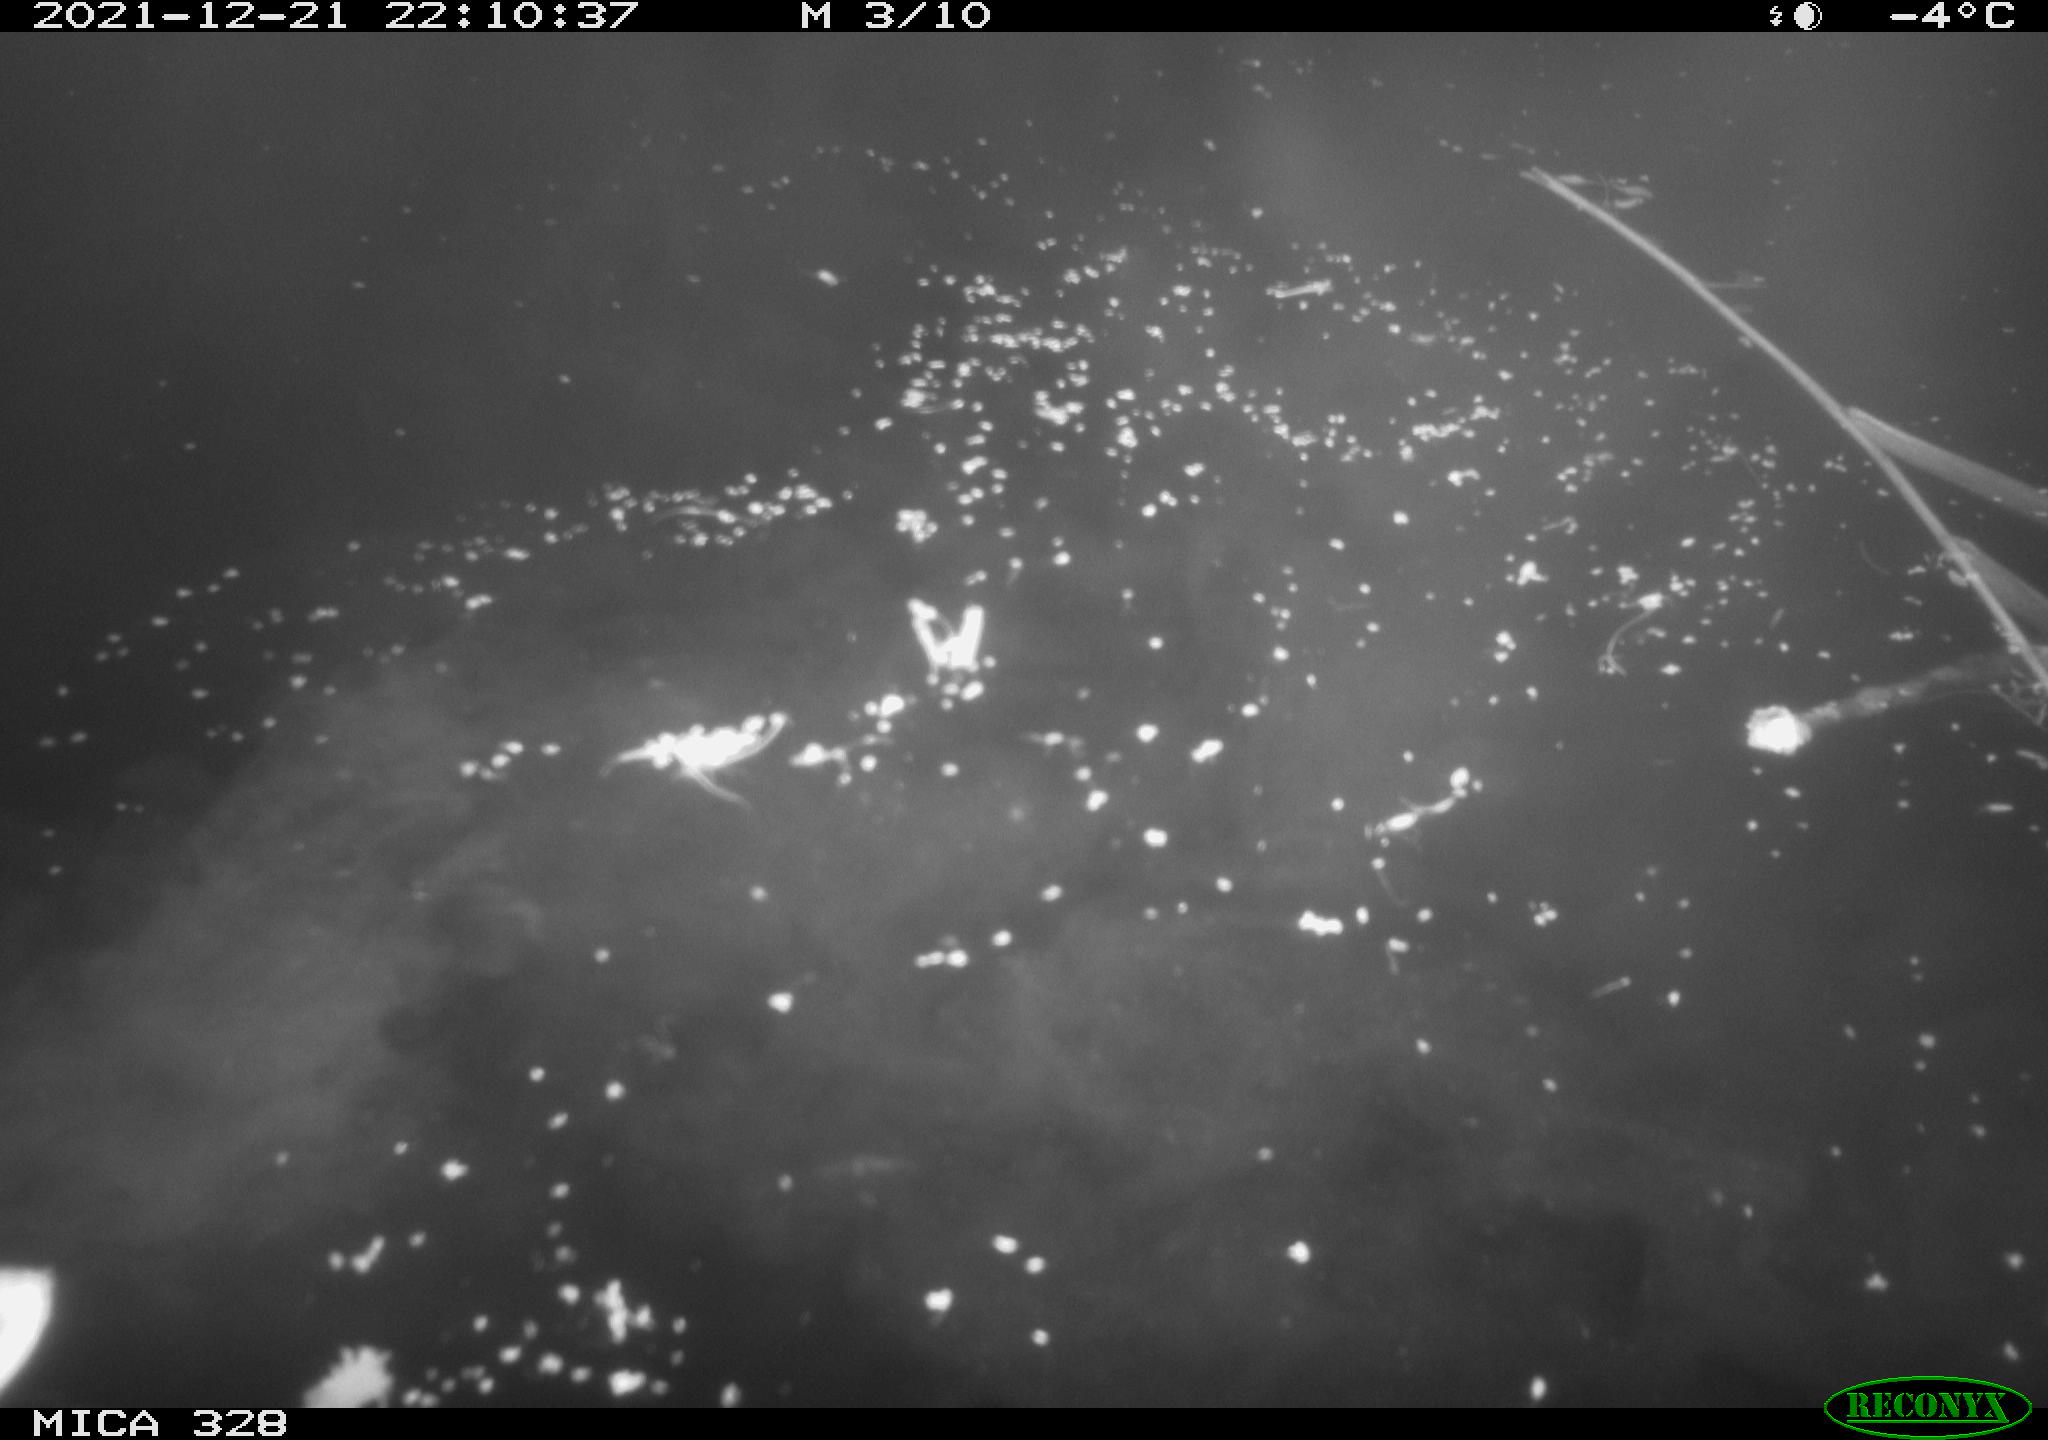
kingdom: Animalia
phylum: Chordata
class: Aves
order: Anseriformes
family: Anatidae
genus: Anas
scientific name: Anas platyrhynchos
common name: Mallard
